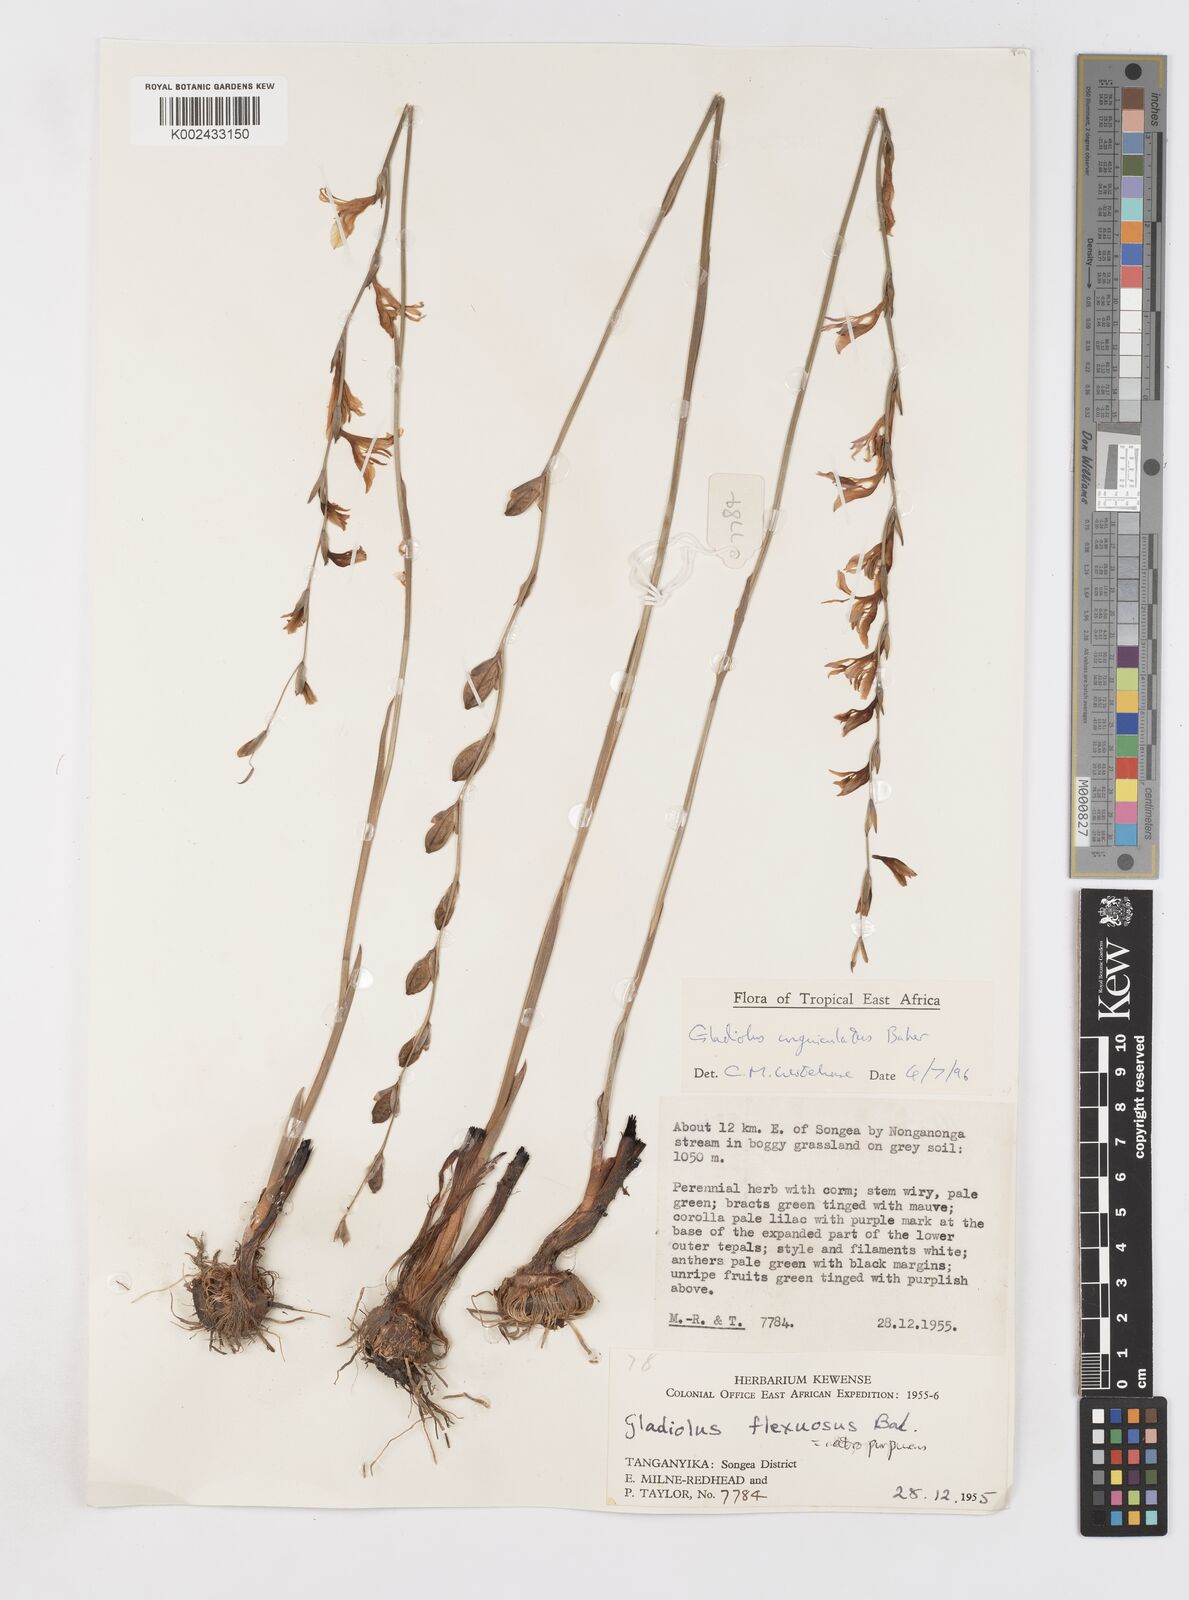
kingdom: Plantae
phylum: Tracheophyta
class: Liliopsida
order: Asparagales
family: Iridaceae
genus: Gladiolus
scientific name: Gladiolus unguiculatus
